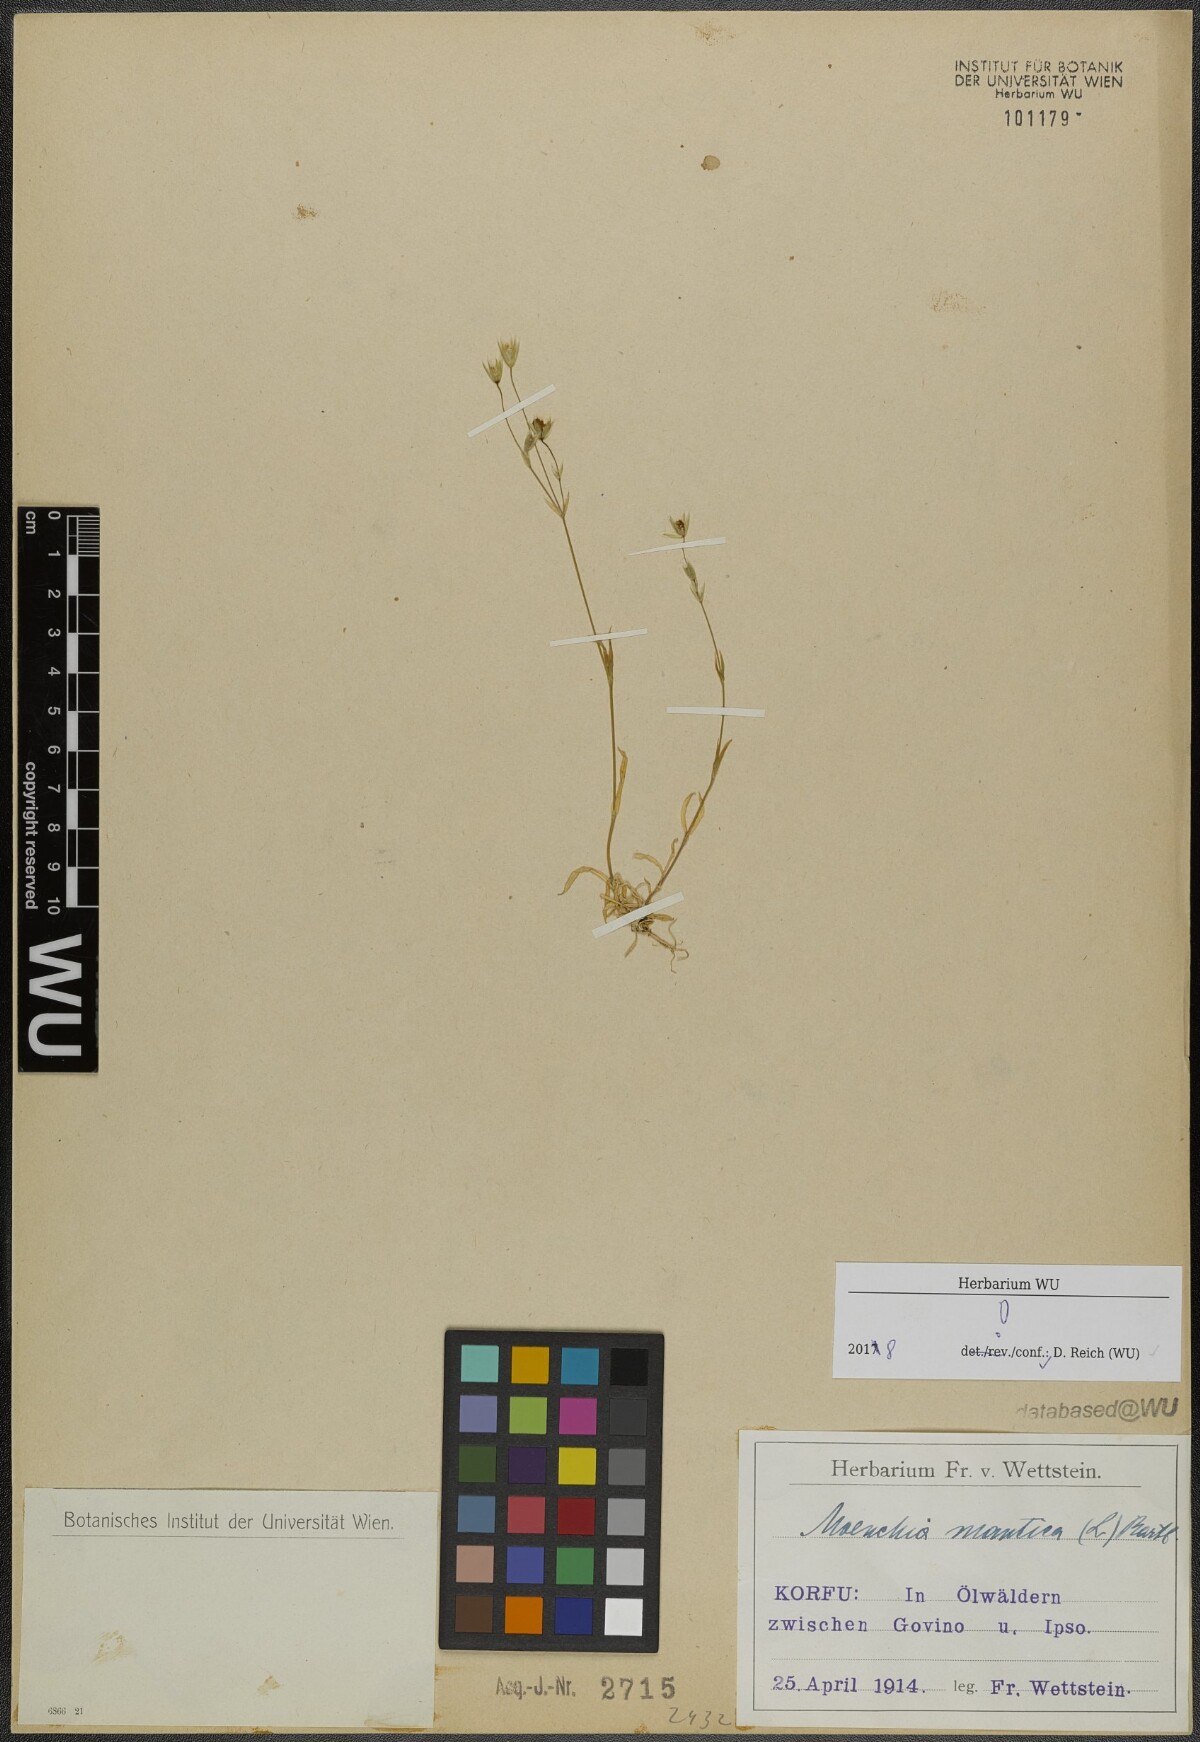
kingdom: Plantae
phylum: Tracheophyta
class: Magnoliopsida
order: Caryophyllales
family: Caryophyllaceae
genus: Moenchia
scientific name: Moenchia mantica
